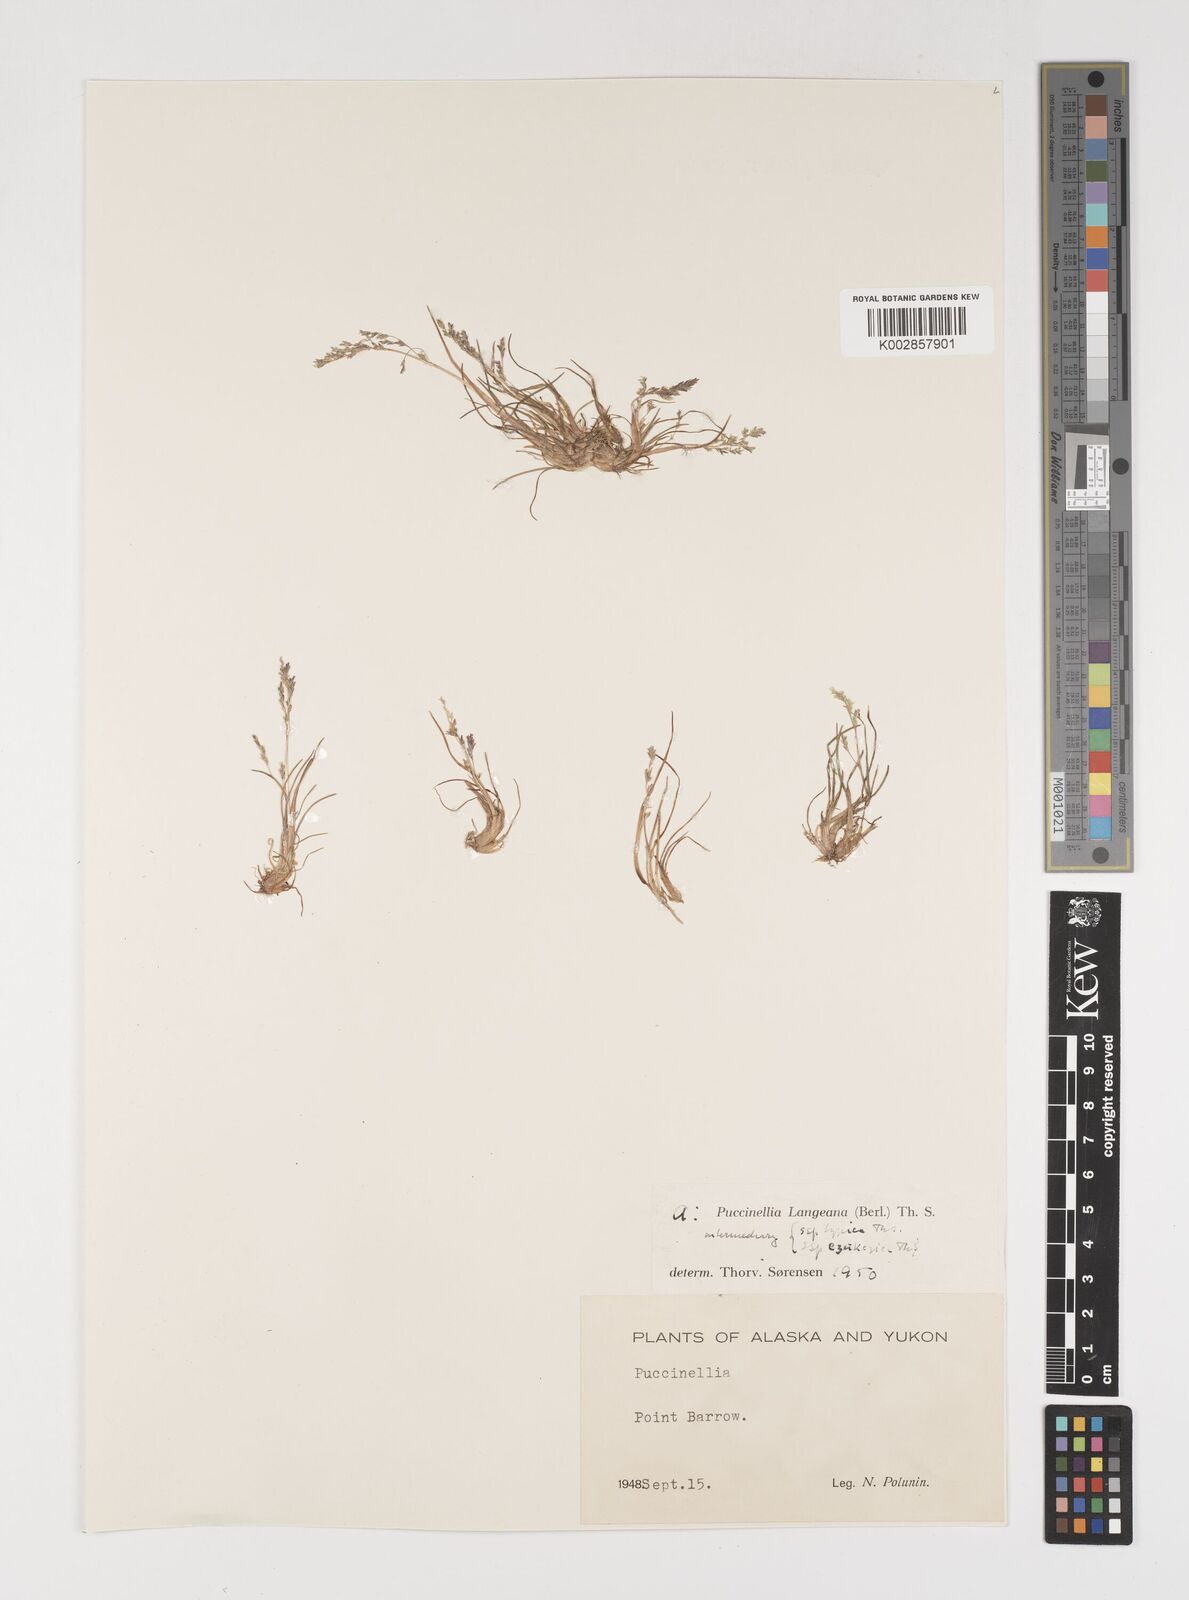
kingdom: Plantae
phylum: Tracheophyta
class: Liliopsida
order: Poales
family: Poaceae
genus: Puccinellia
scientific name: Puccinellia
